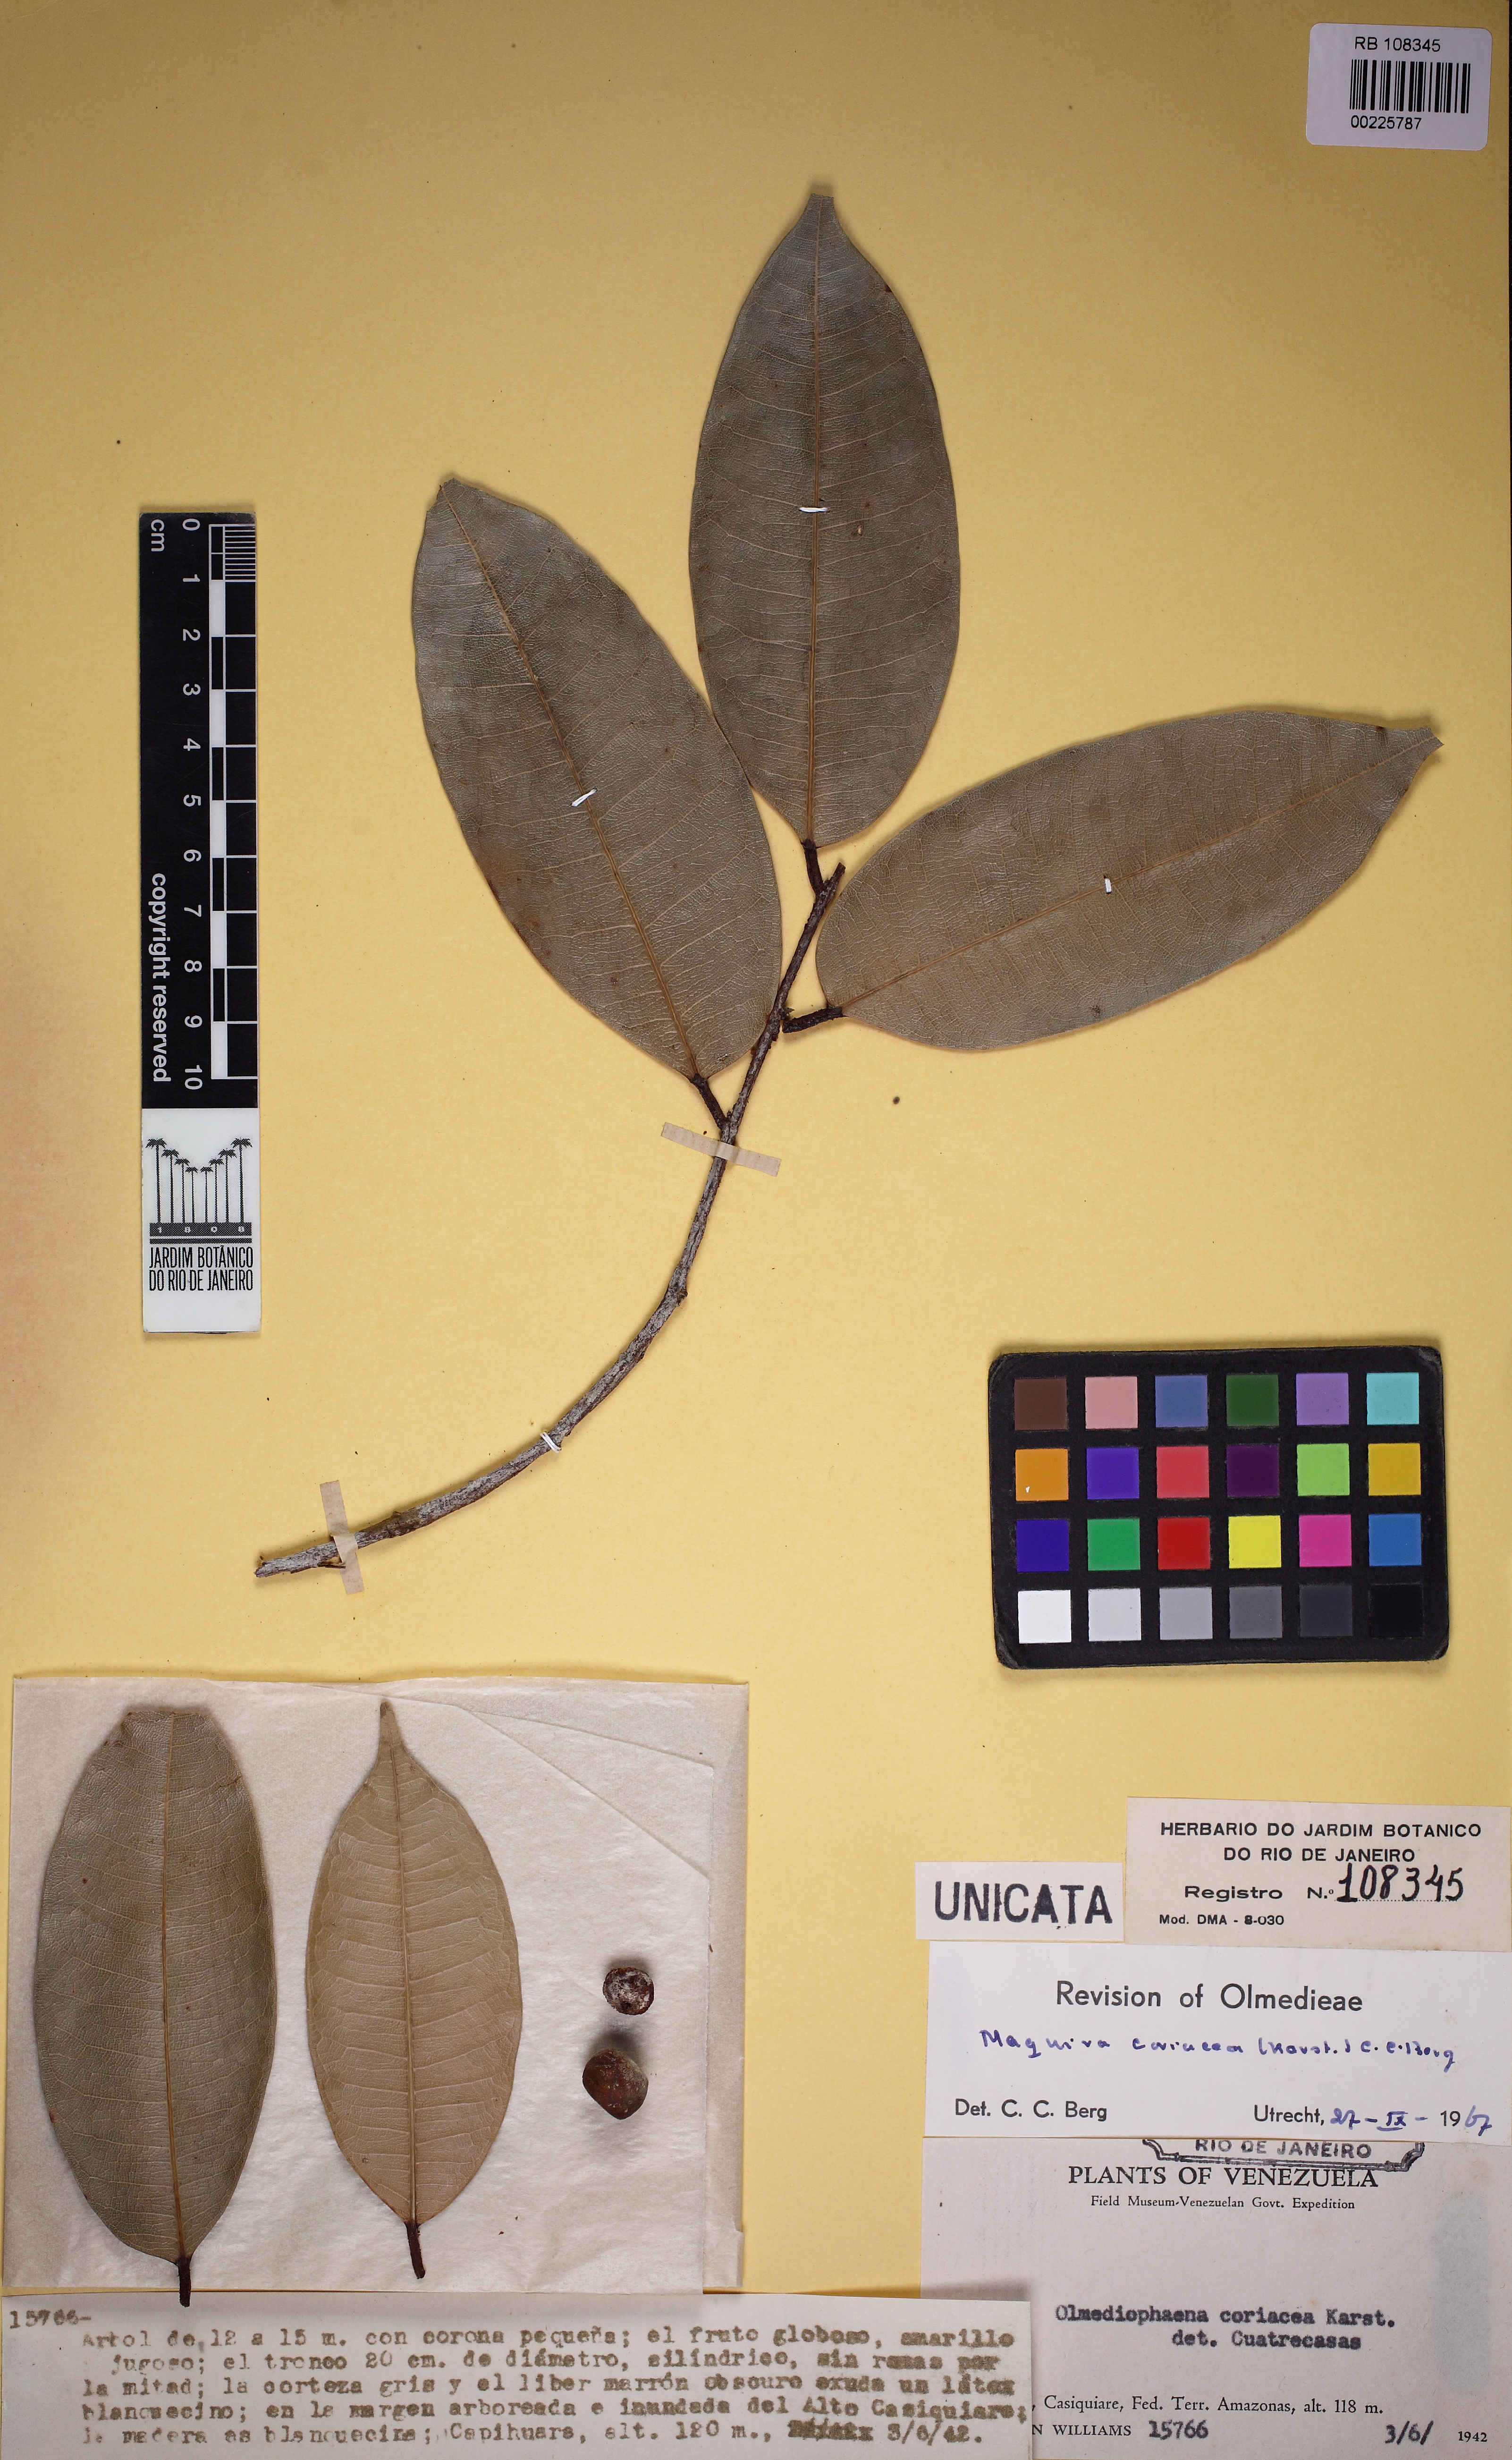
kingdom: Plantae
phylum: Tracheophyta
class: Magnoliopsida
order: Rosales
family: Moraceae
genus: Maquira
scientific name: Maquira coriacea
